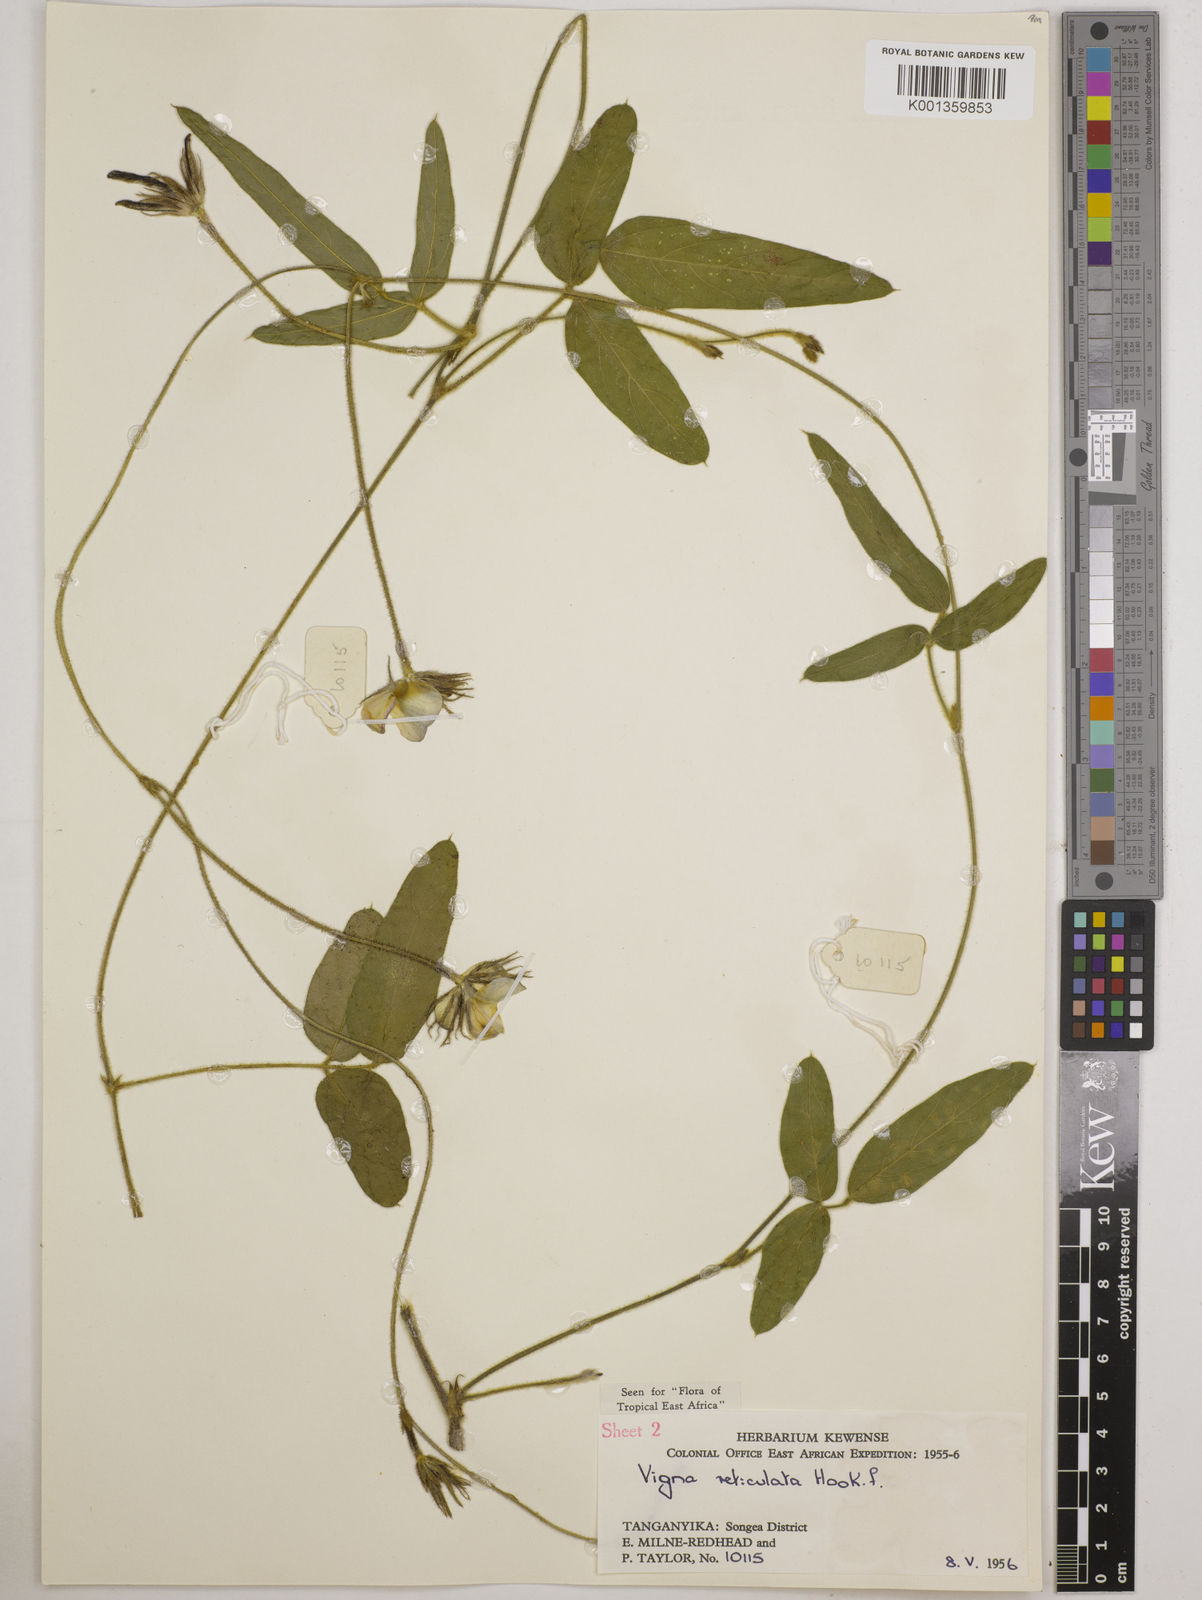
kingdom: Plantae
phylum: Tracheophyta
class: Magnoliopsida
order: Fabales
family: Fabaceae
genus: Vigna
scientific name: Vigna reticulata
